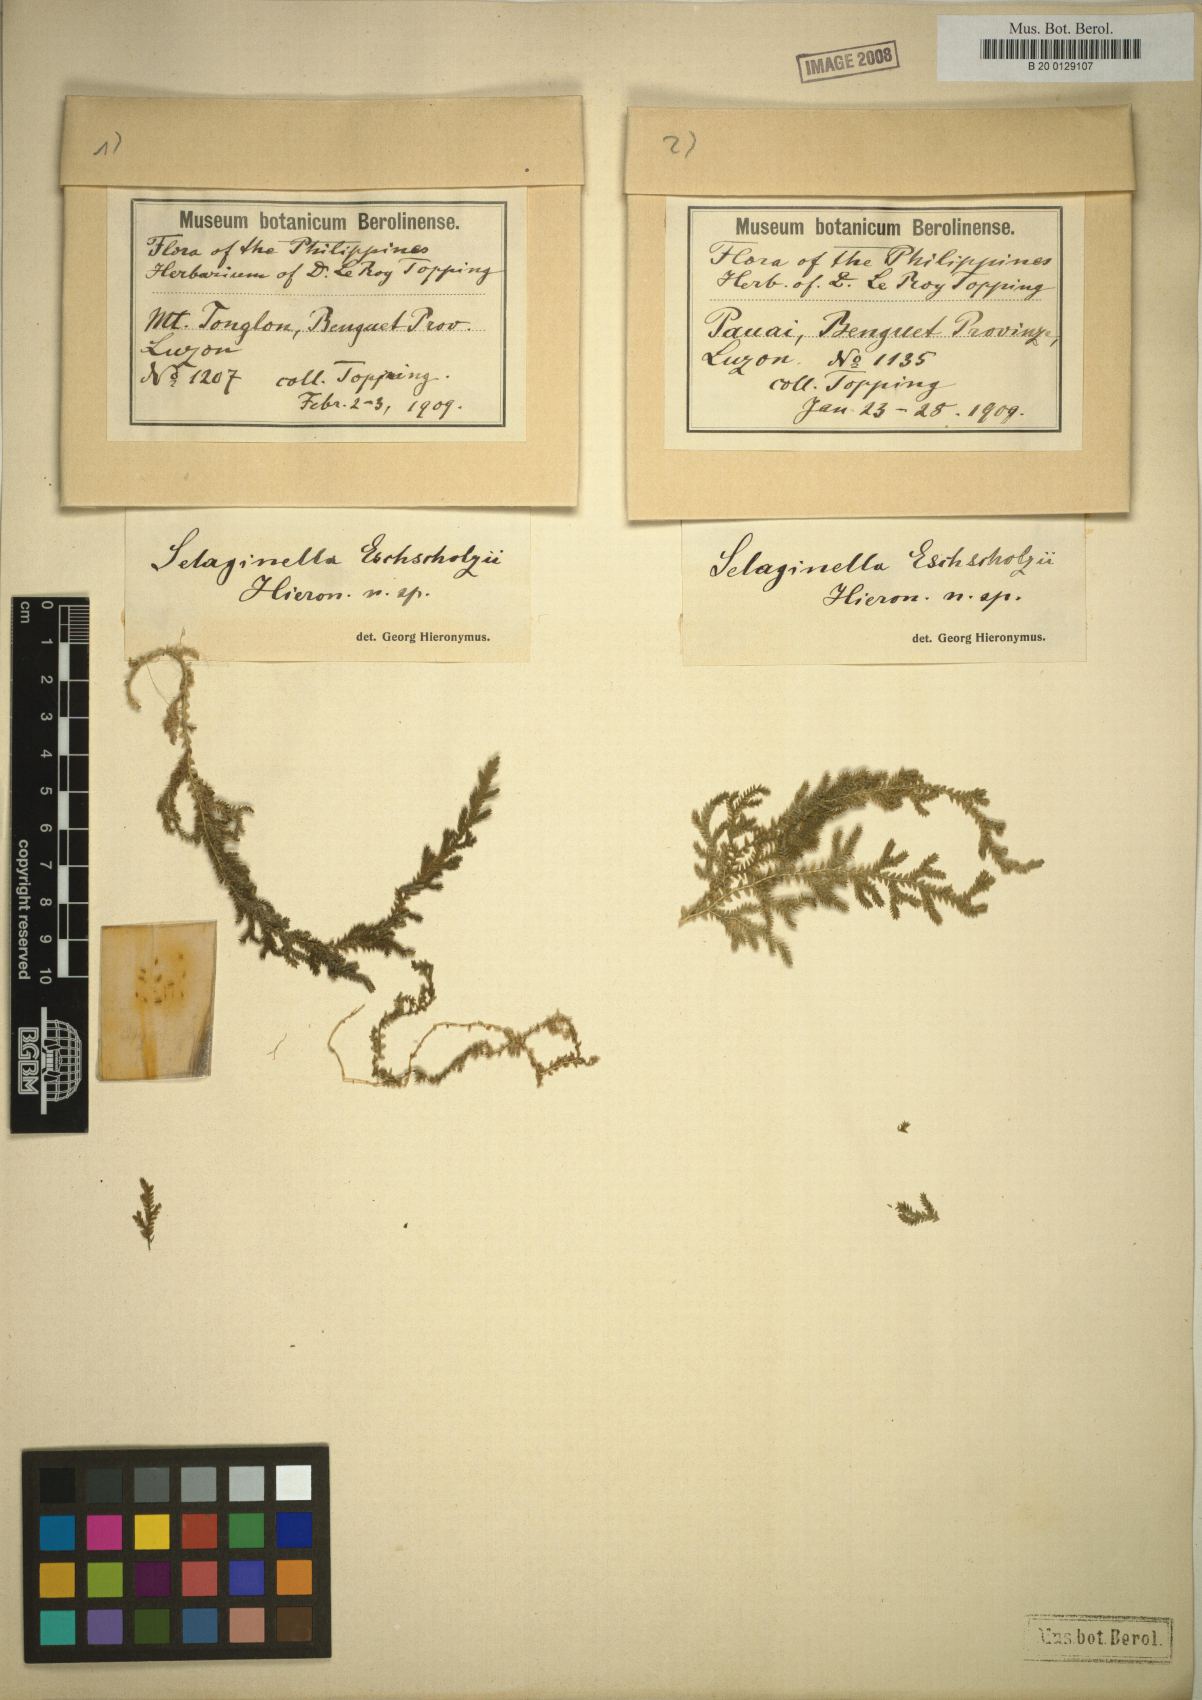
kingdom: Plantae
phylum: Tracheophyta
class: Lycopodiopsida
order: Selaginellales
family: Selaginellaceae
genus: Selaginella
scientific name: Selaginella eschscholzii
